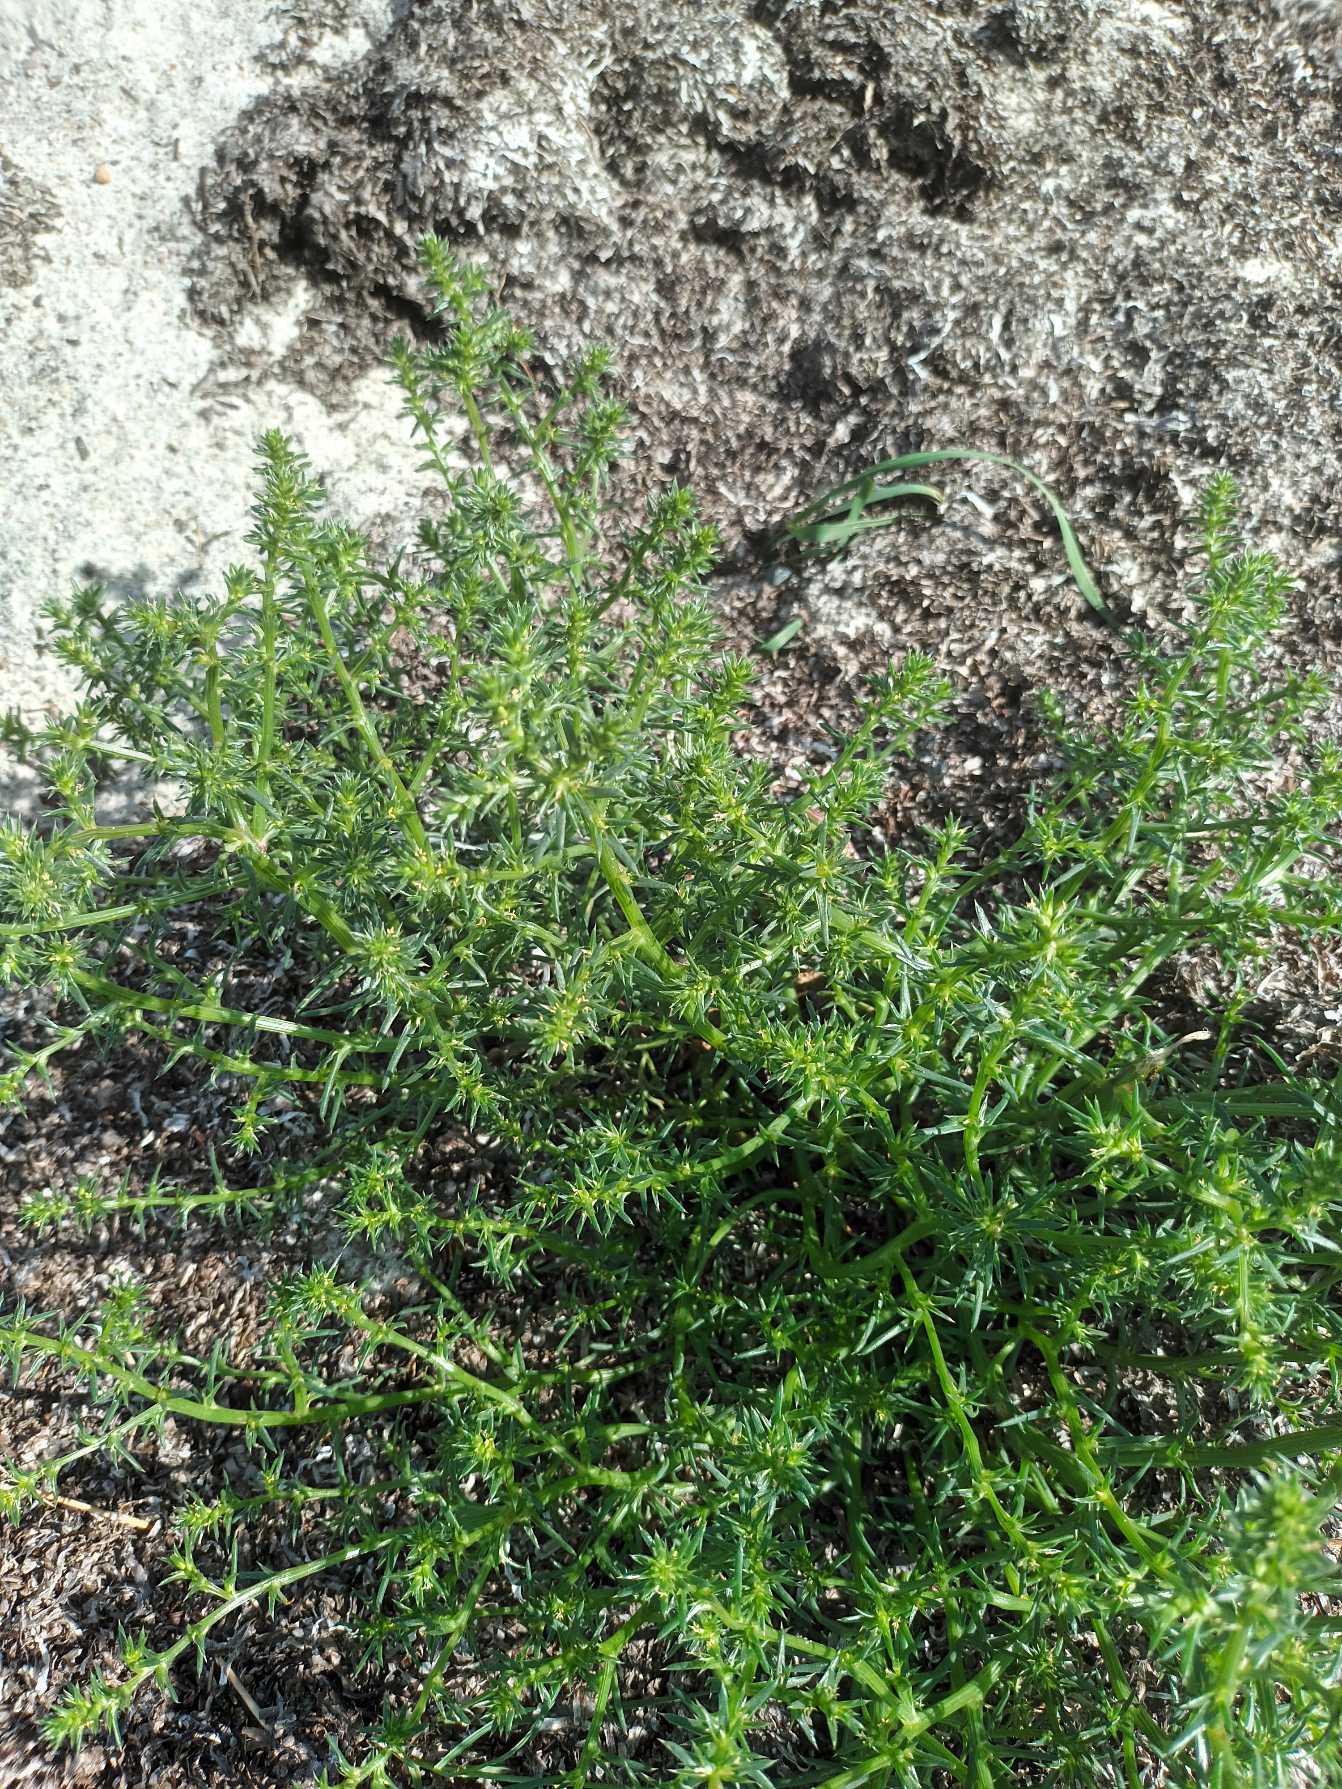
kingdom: Plantae
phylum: Tracheophyta
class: Magnoliopsida
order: Caryophyllales
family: Amaranthaceae
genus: Salsola
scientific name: Salsola kali
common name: Sodaurt
